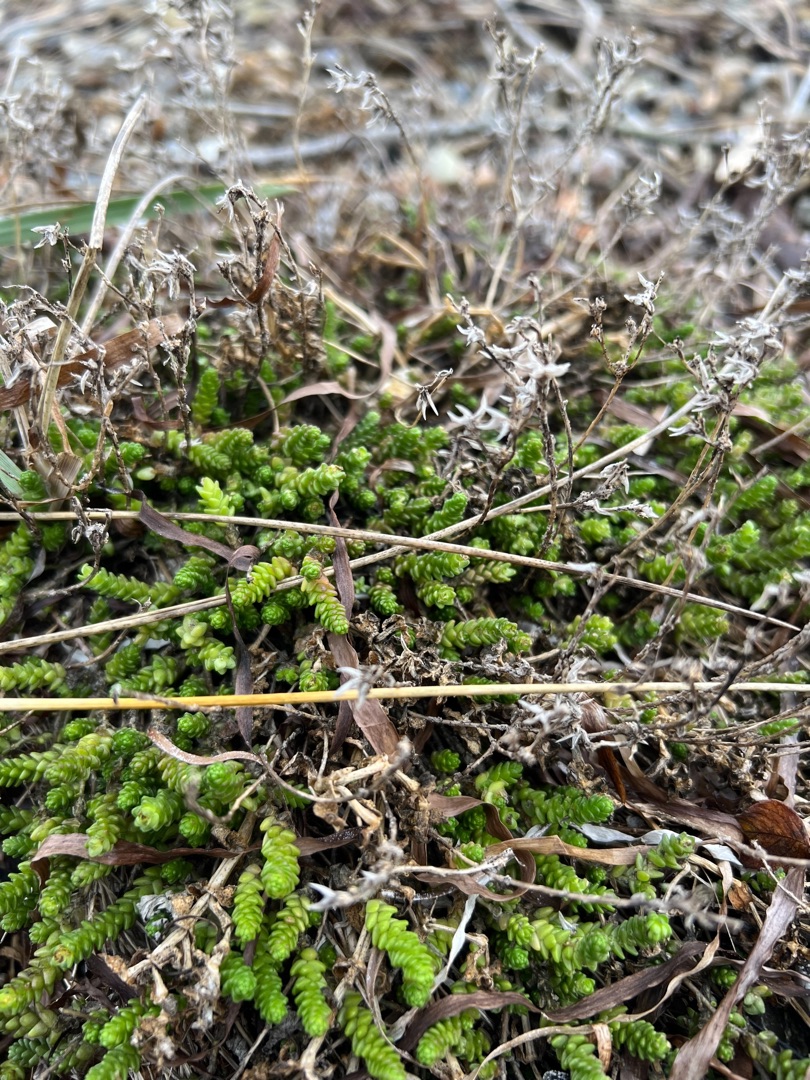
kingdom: Plantae
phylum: Tracheophyta
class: Magnoliopsida
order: Saxifragales
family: Crassulaceae
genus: Sedum
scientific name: Sedum acre
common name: Bidende stenurt
